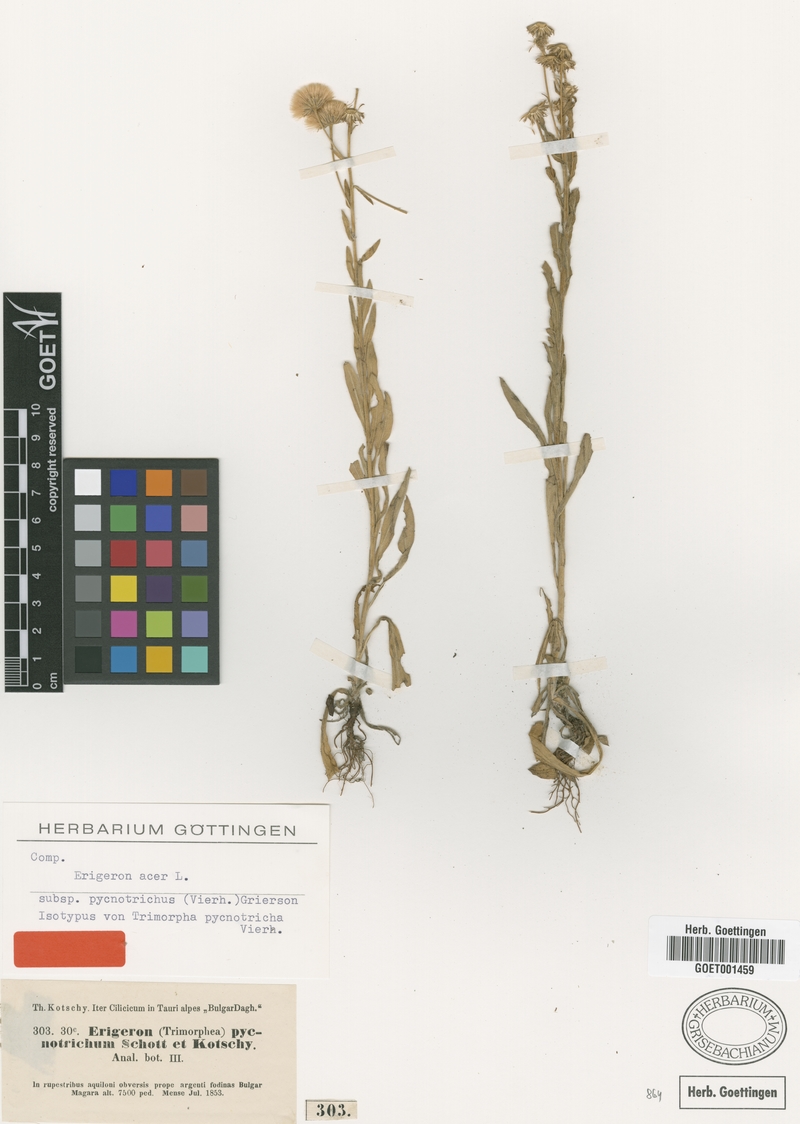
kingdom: Plantae
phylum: Tracheophyta
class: Magnoliopsida
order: Asterales
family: Asteraceae
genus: Erigeron
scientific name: Erigeron acris
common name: Blue fleabane
